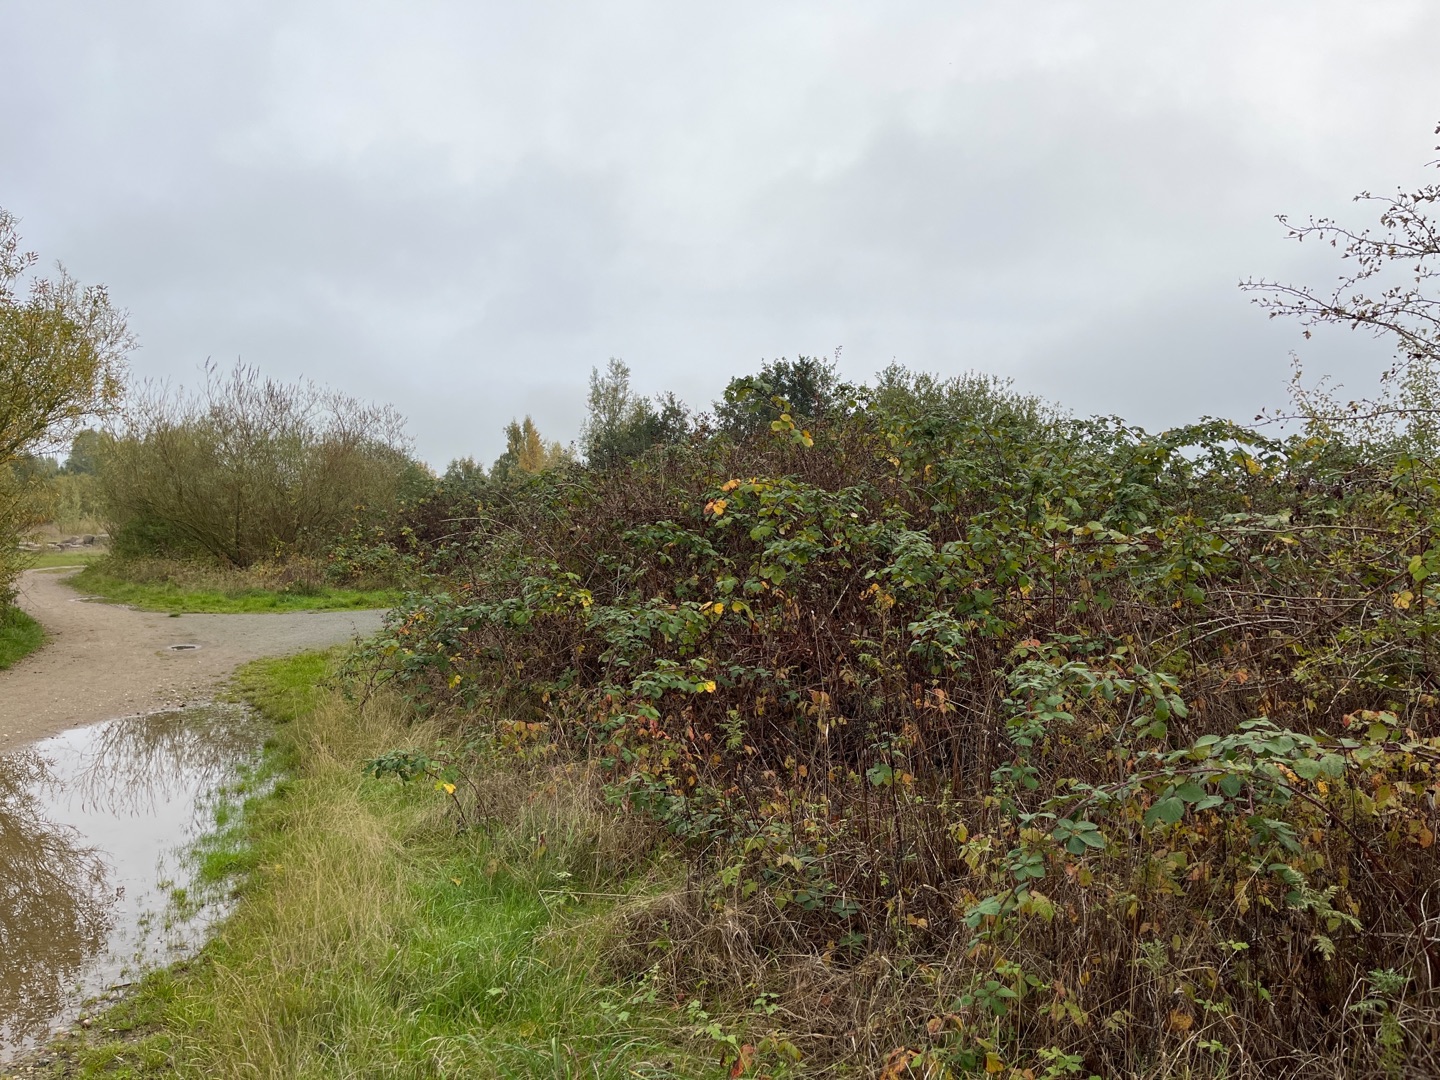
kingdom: Plantae
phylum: Tracheophyta
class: Magnoliopsida
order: Rosales
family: Rosaceae
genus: Rubus
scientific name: Rubus armeniacus
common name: Armensk brombær
